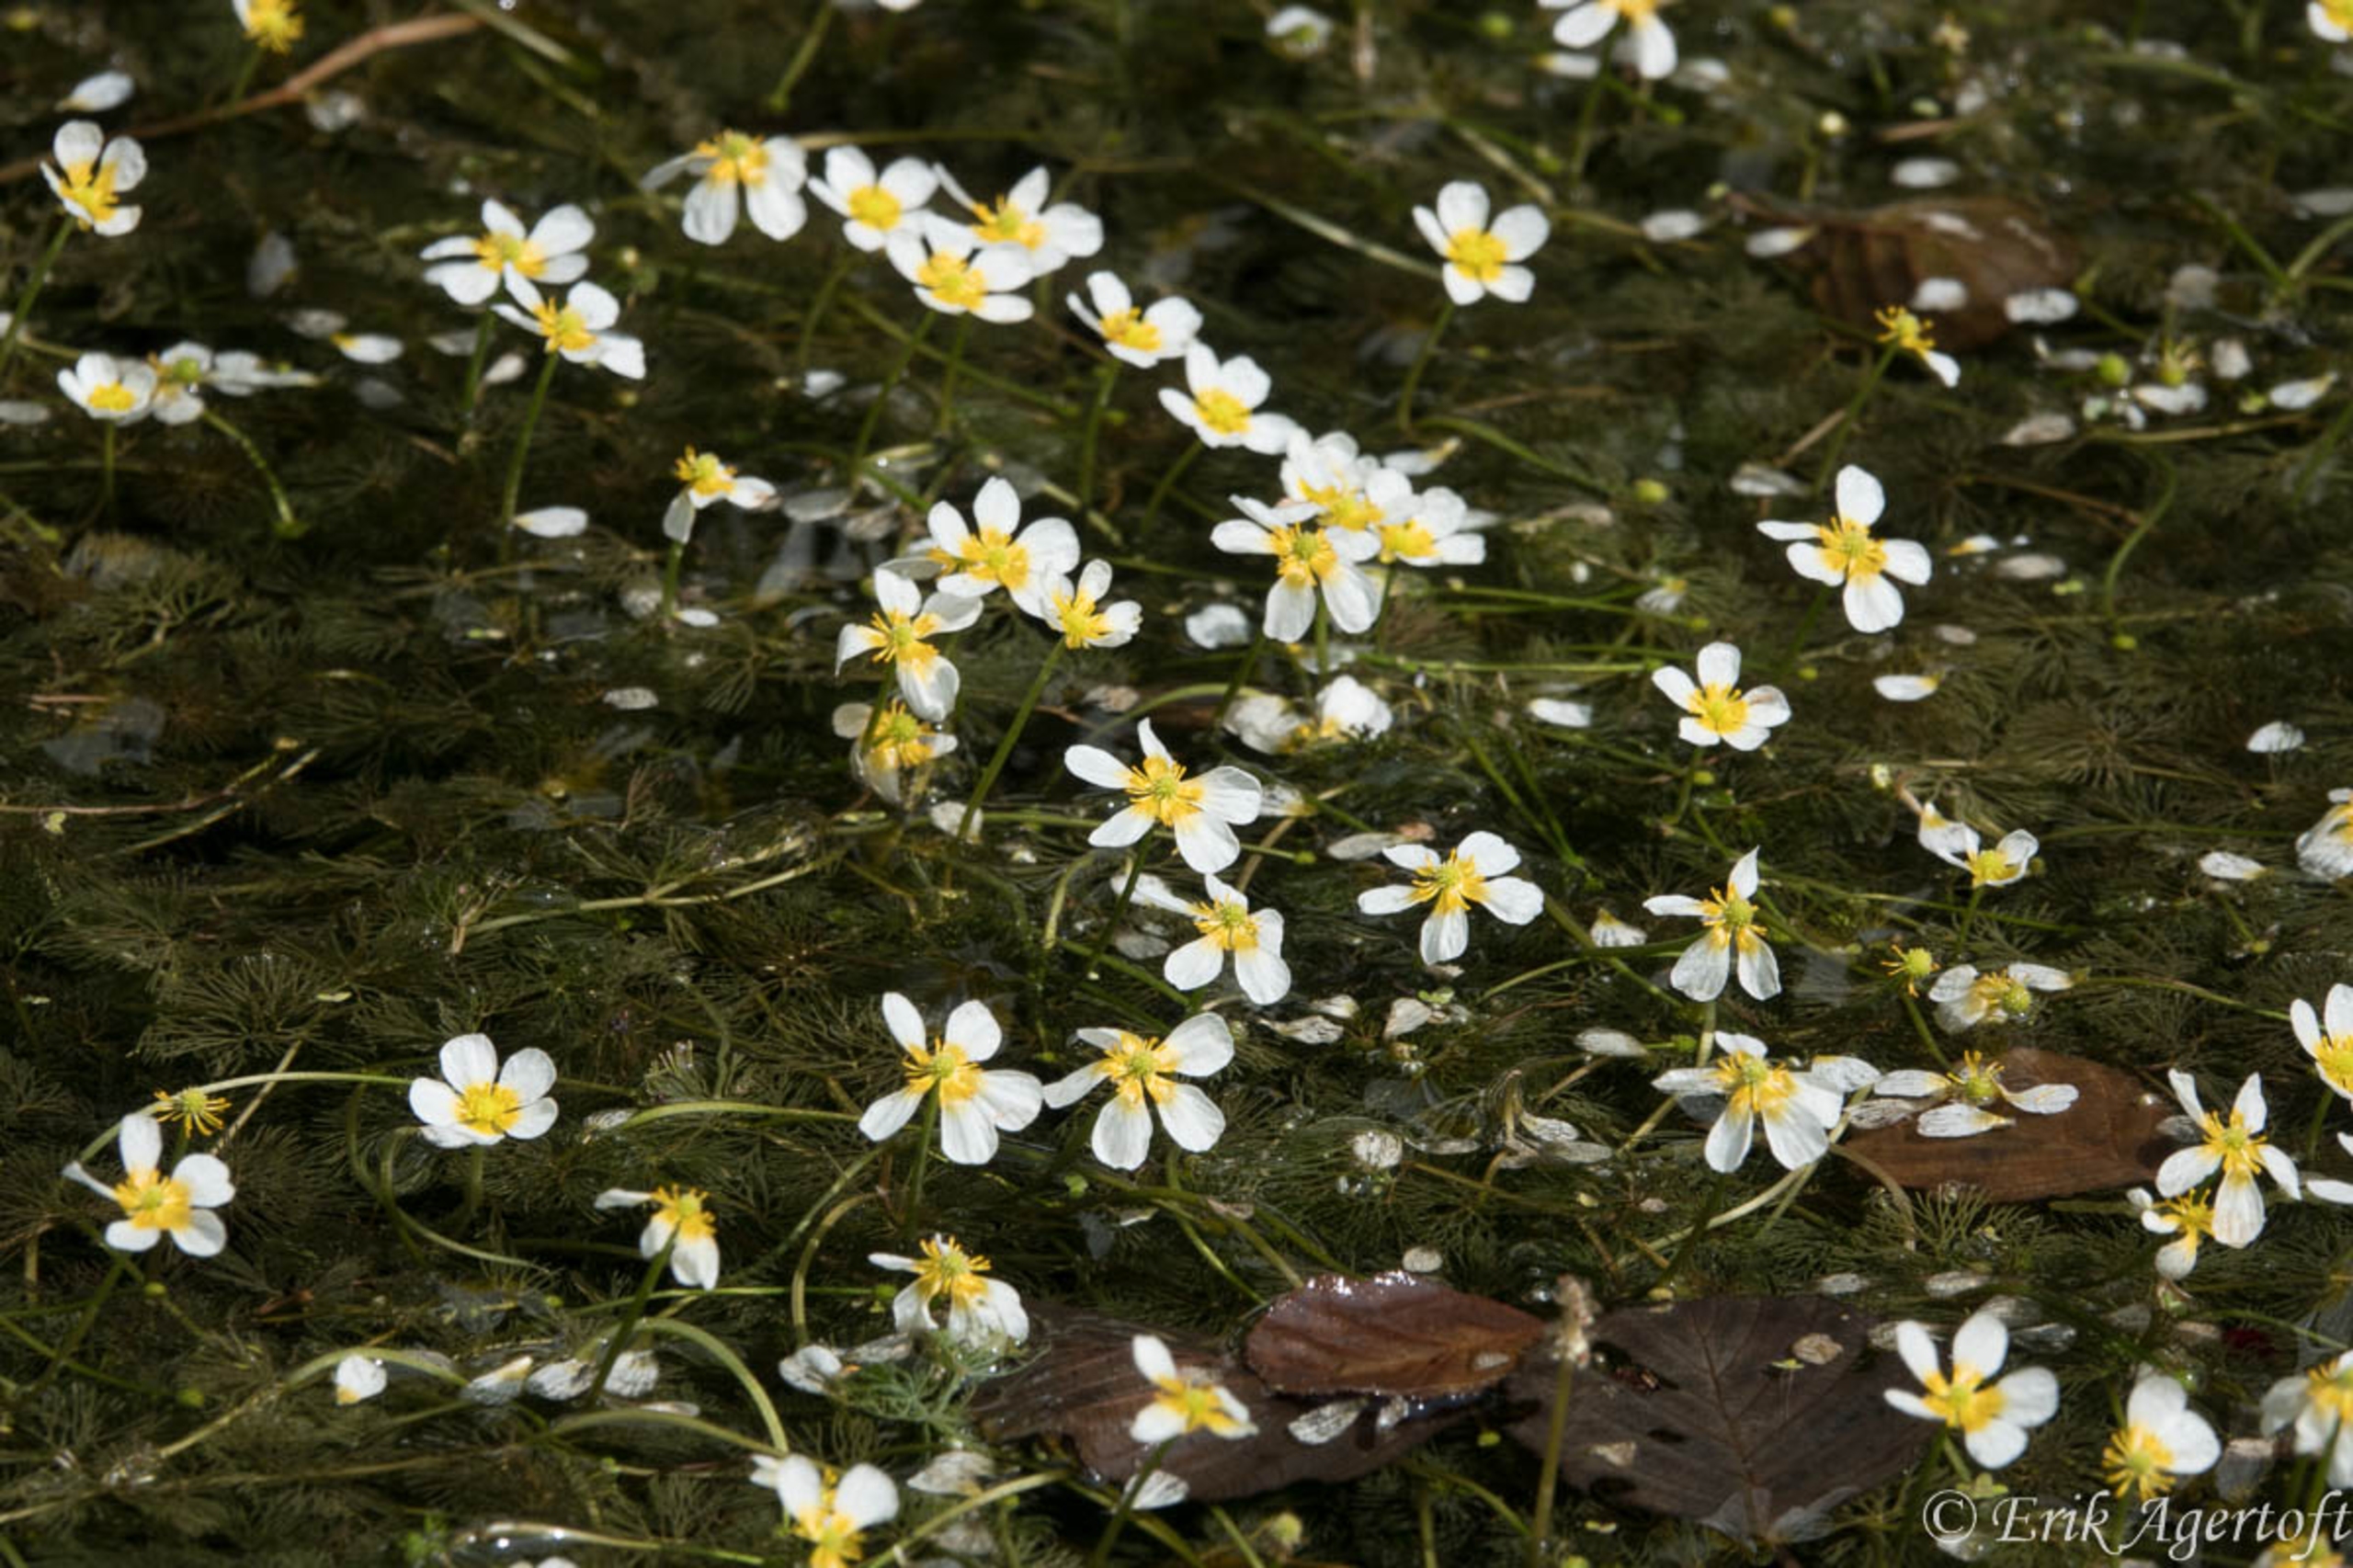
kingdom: Plantae
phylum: Tracheophyta
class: Magnoliopsida
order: Ranunculales
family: Ranunculaceae
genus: Ranunculus
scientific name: Ranunculus circinatus
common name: Kredsbladet vandranunkel
